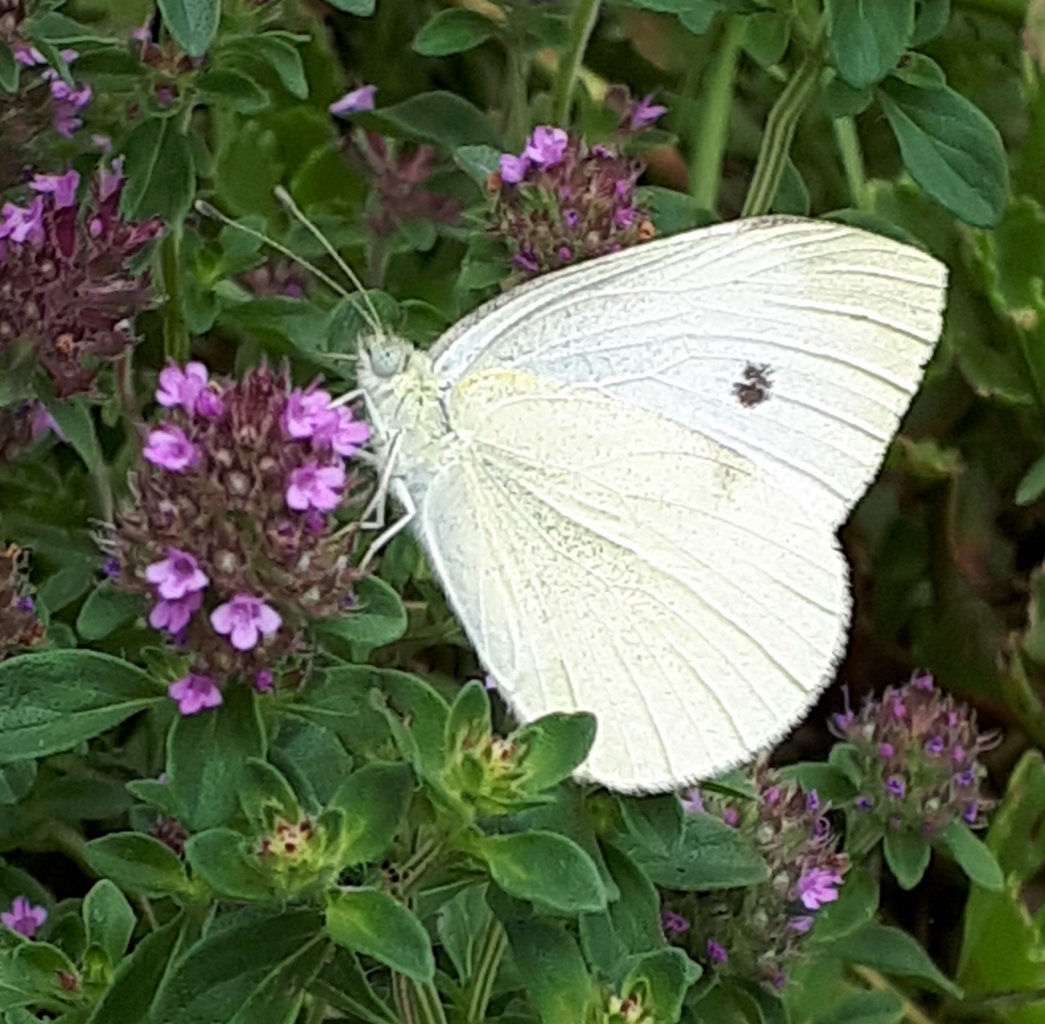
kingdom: Animalia
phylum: Arthropoda
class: Insecta
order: Lepidoptera
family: Pieridae
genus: Pieris
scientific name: Pieris rapae
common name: Cabbage White
